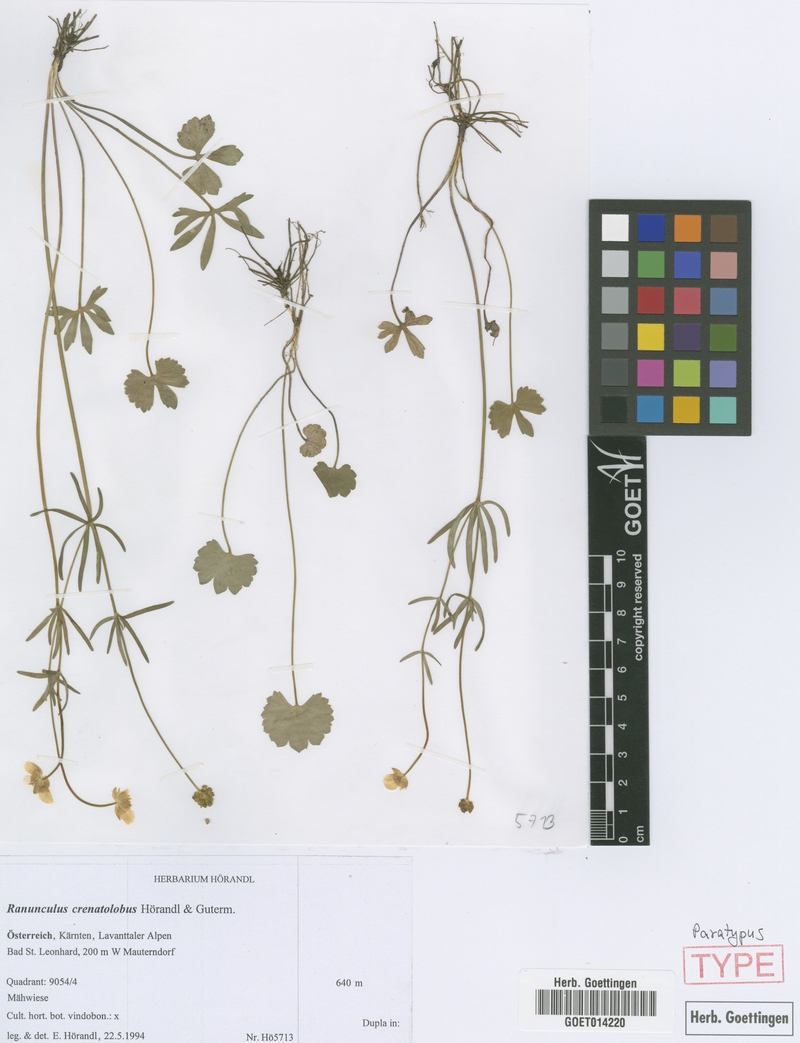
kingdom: Plantae
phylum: Tracheophyta
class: Magnoliopsida
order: Ranunculales
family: Ranunculaceae
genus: Ranunculus
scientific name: Ranunculus crenatolobus
